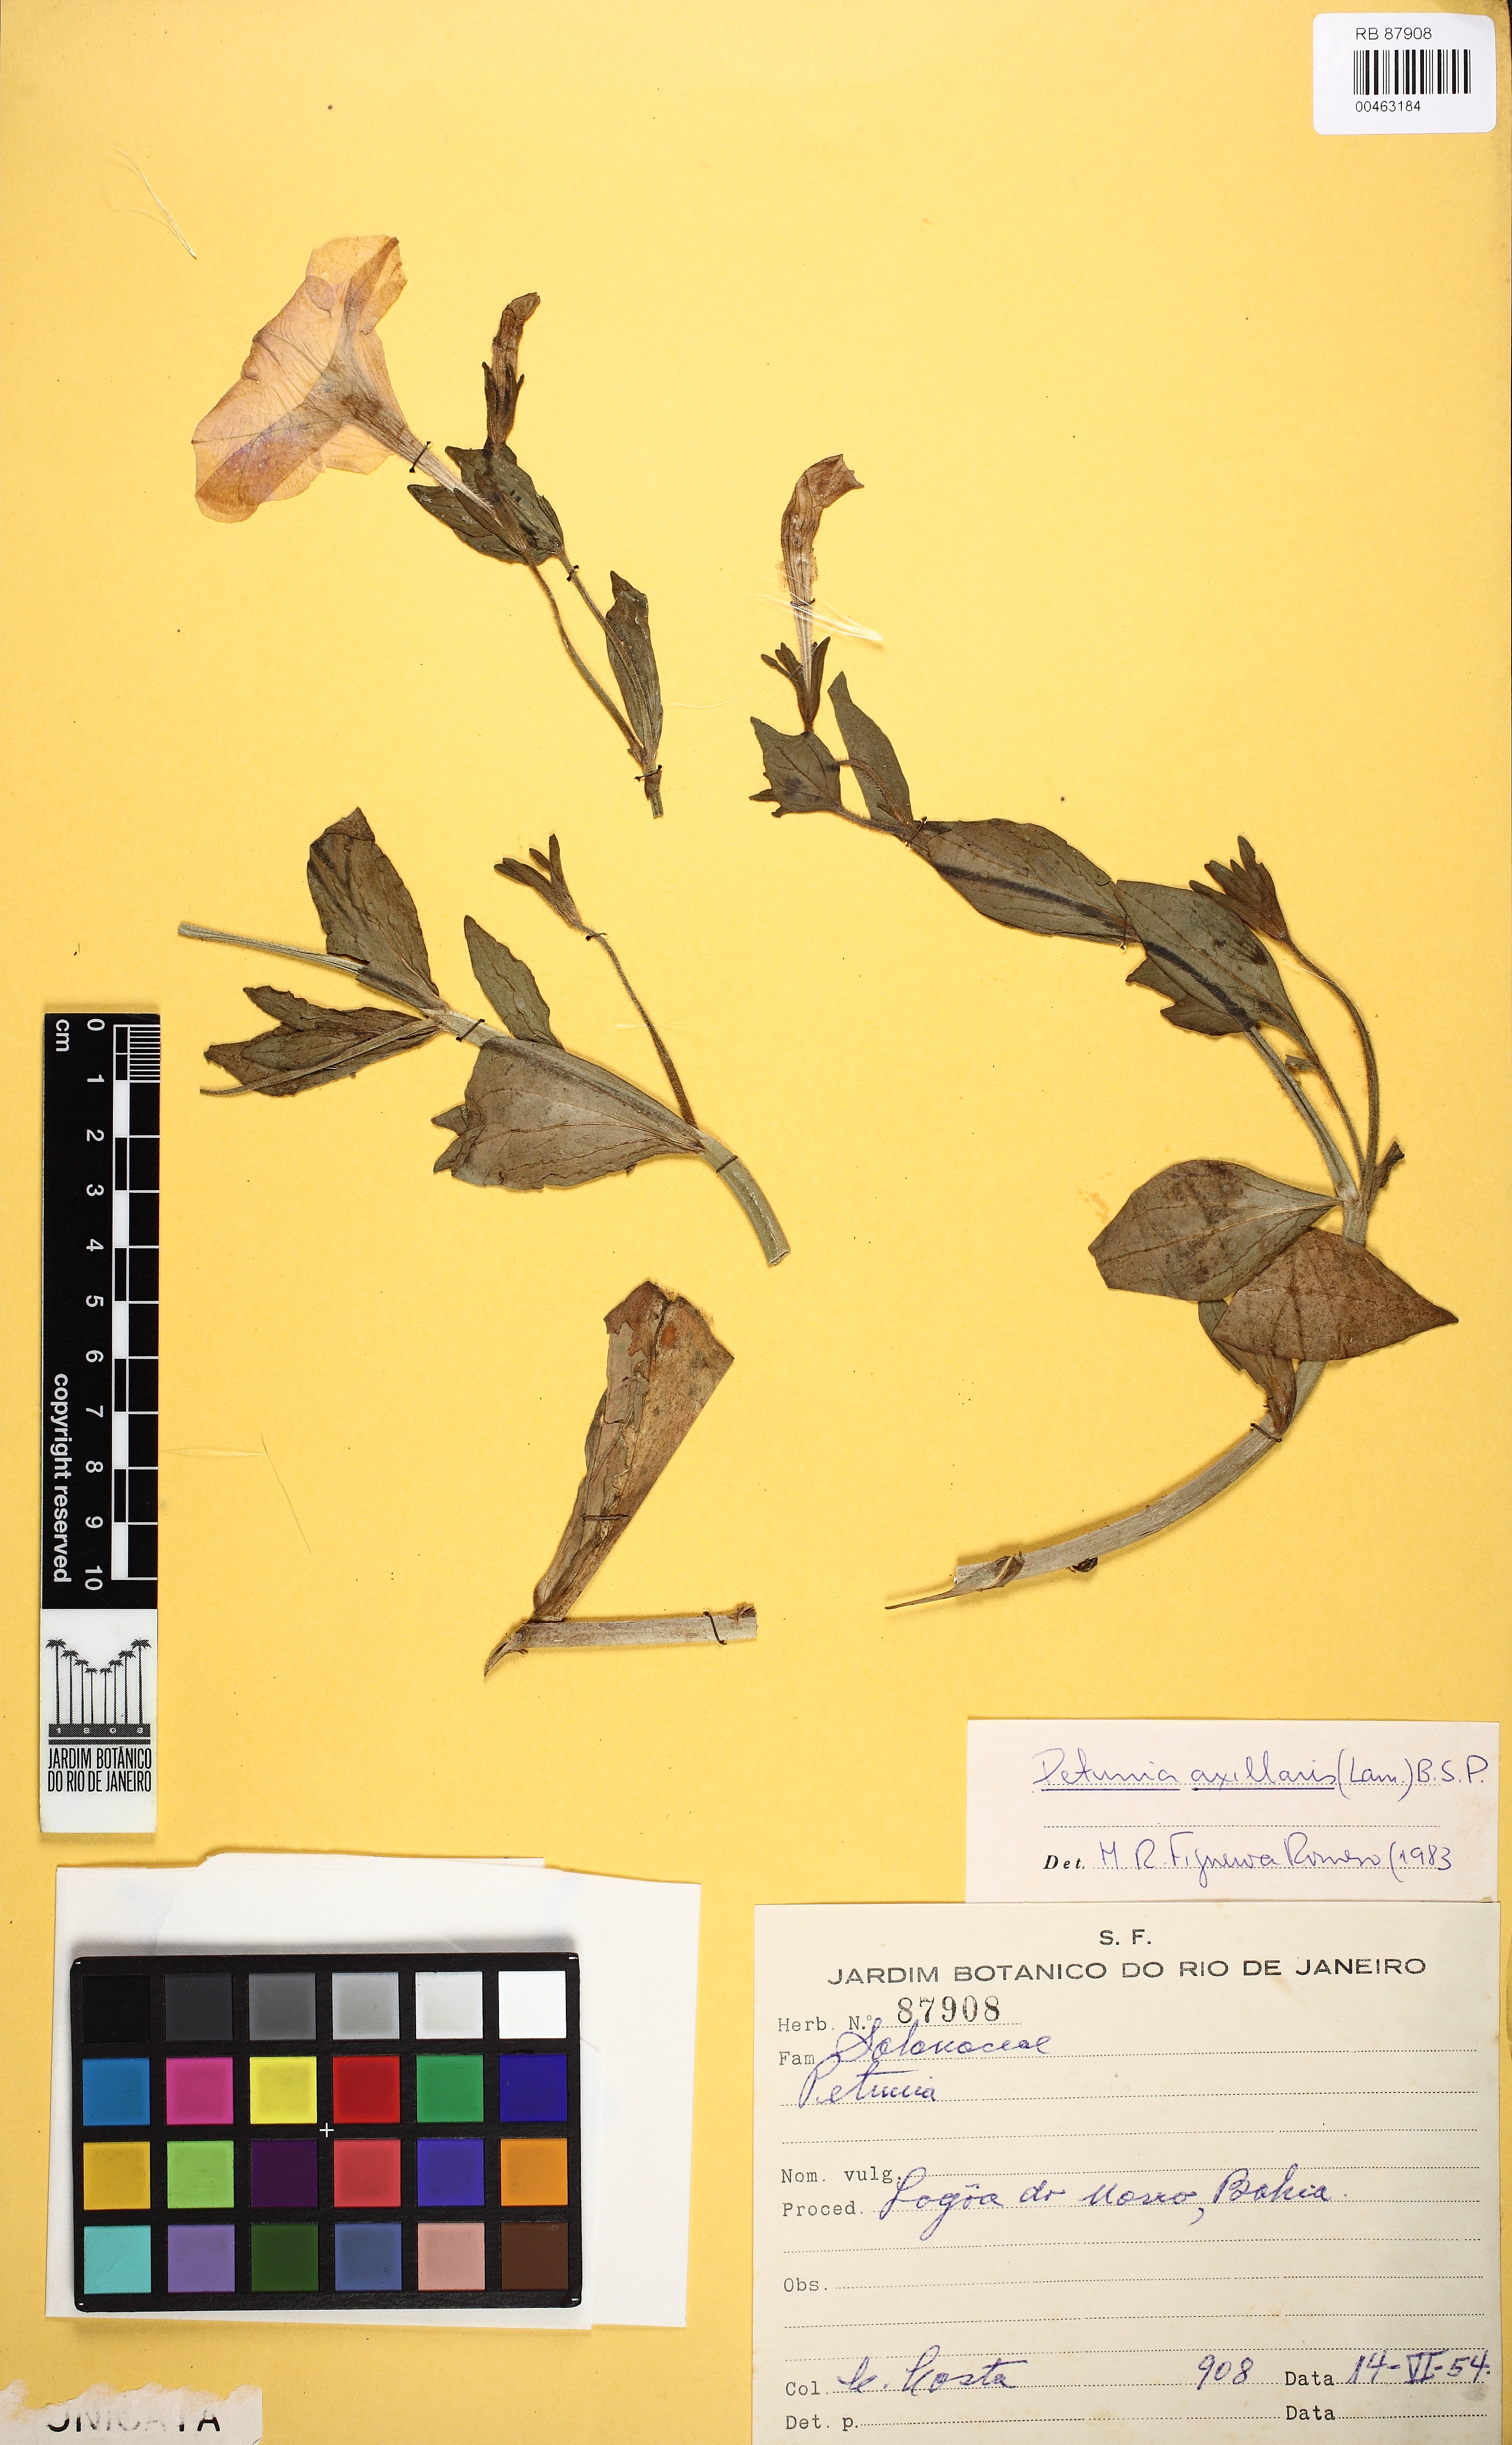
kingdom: Plantae
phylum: Tracheophyta
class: Magnoliopsida
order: Solanales
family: Solanaceae
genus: Petunia
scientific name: Petunia axillaris
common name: Large white petunia
